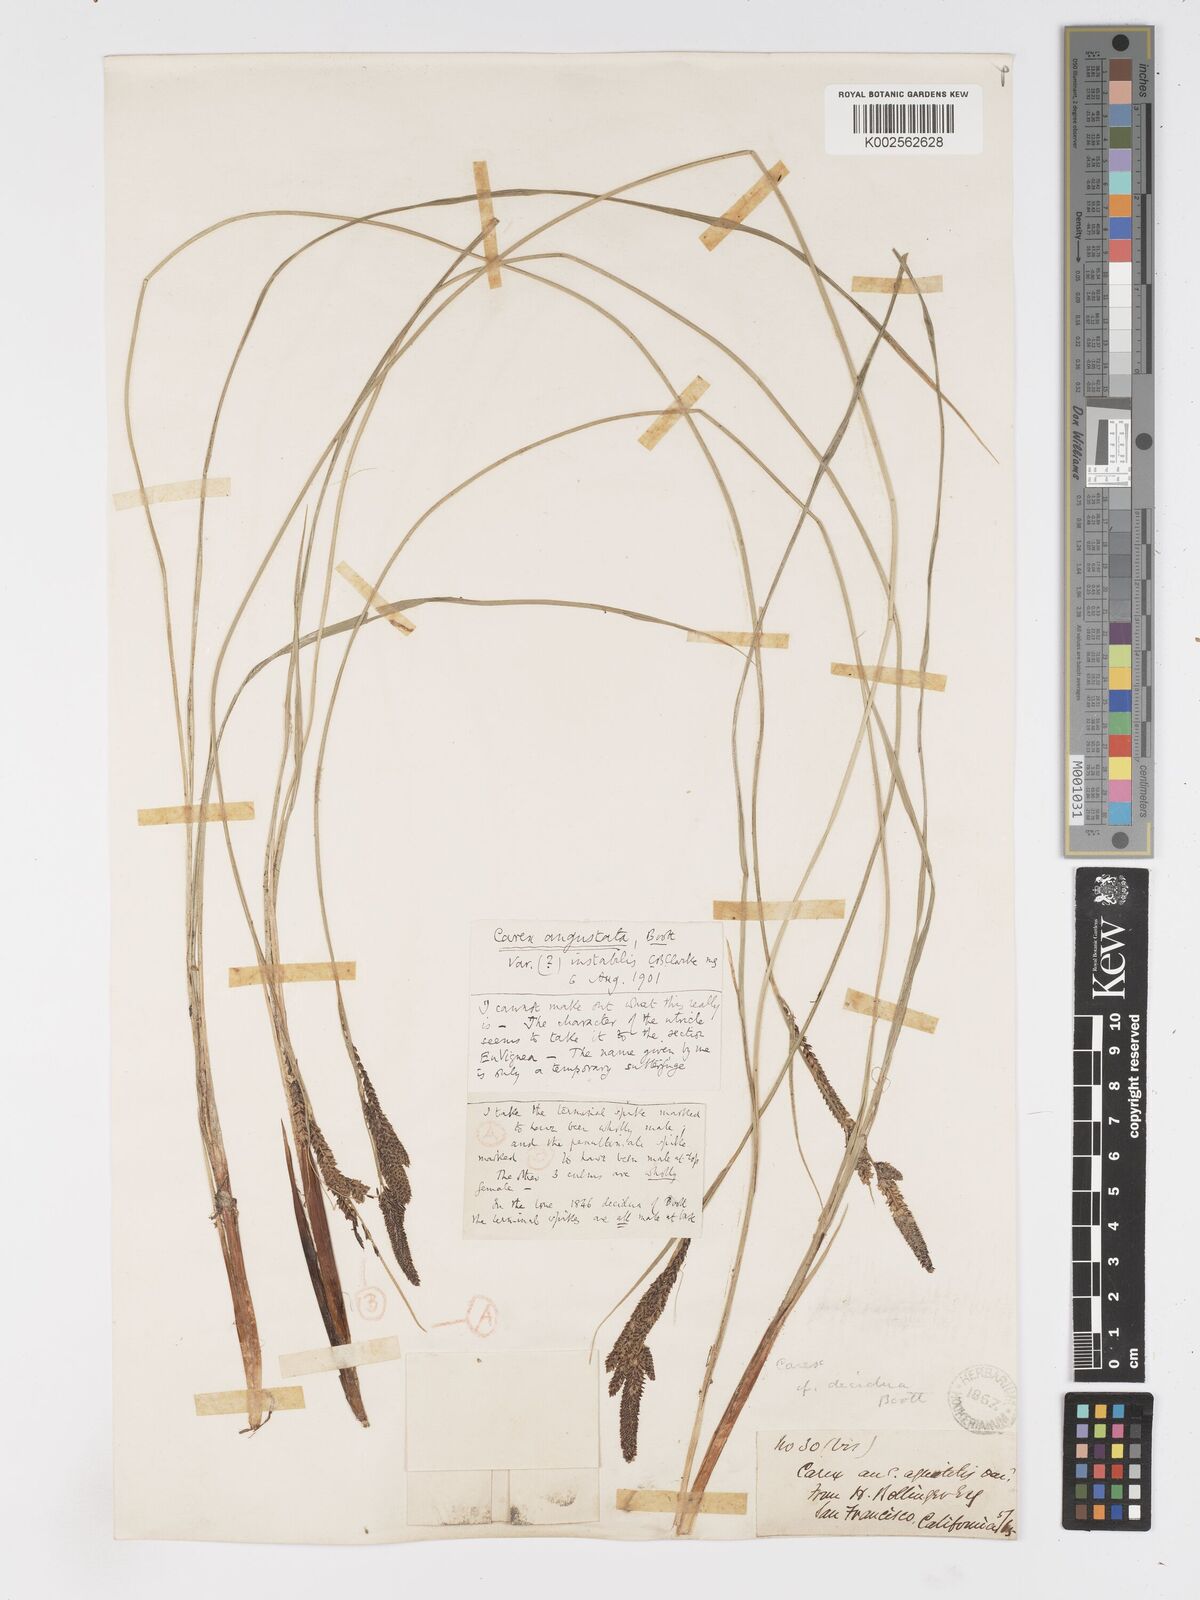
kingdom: Plantae
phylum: Tracheophyta
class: Liliopsida
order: Poales
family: Cyperaceae
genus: Carex
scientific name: Carex stricta
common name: Hummock sedge
